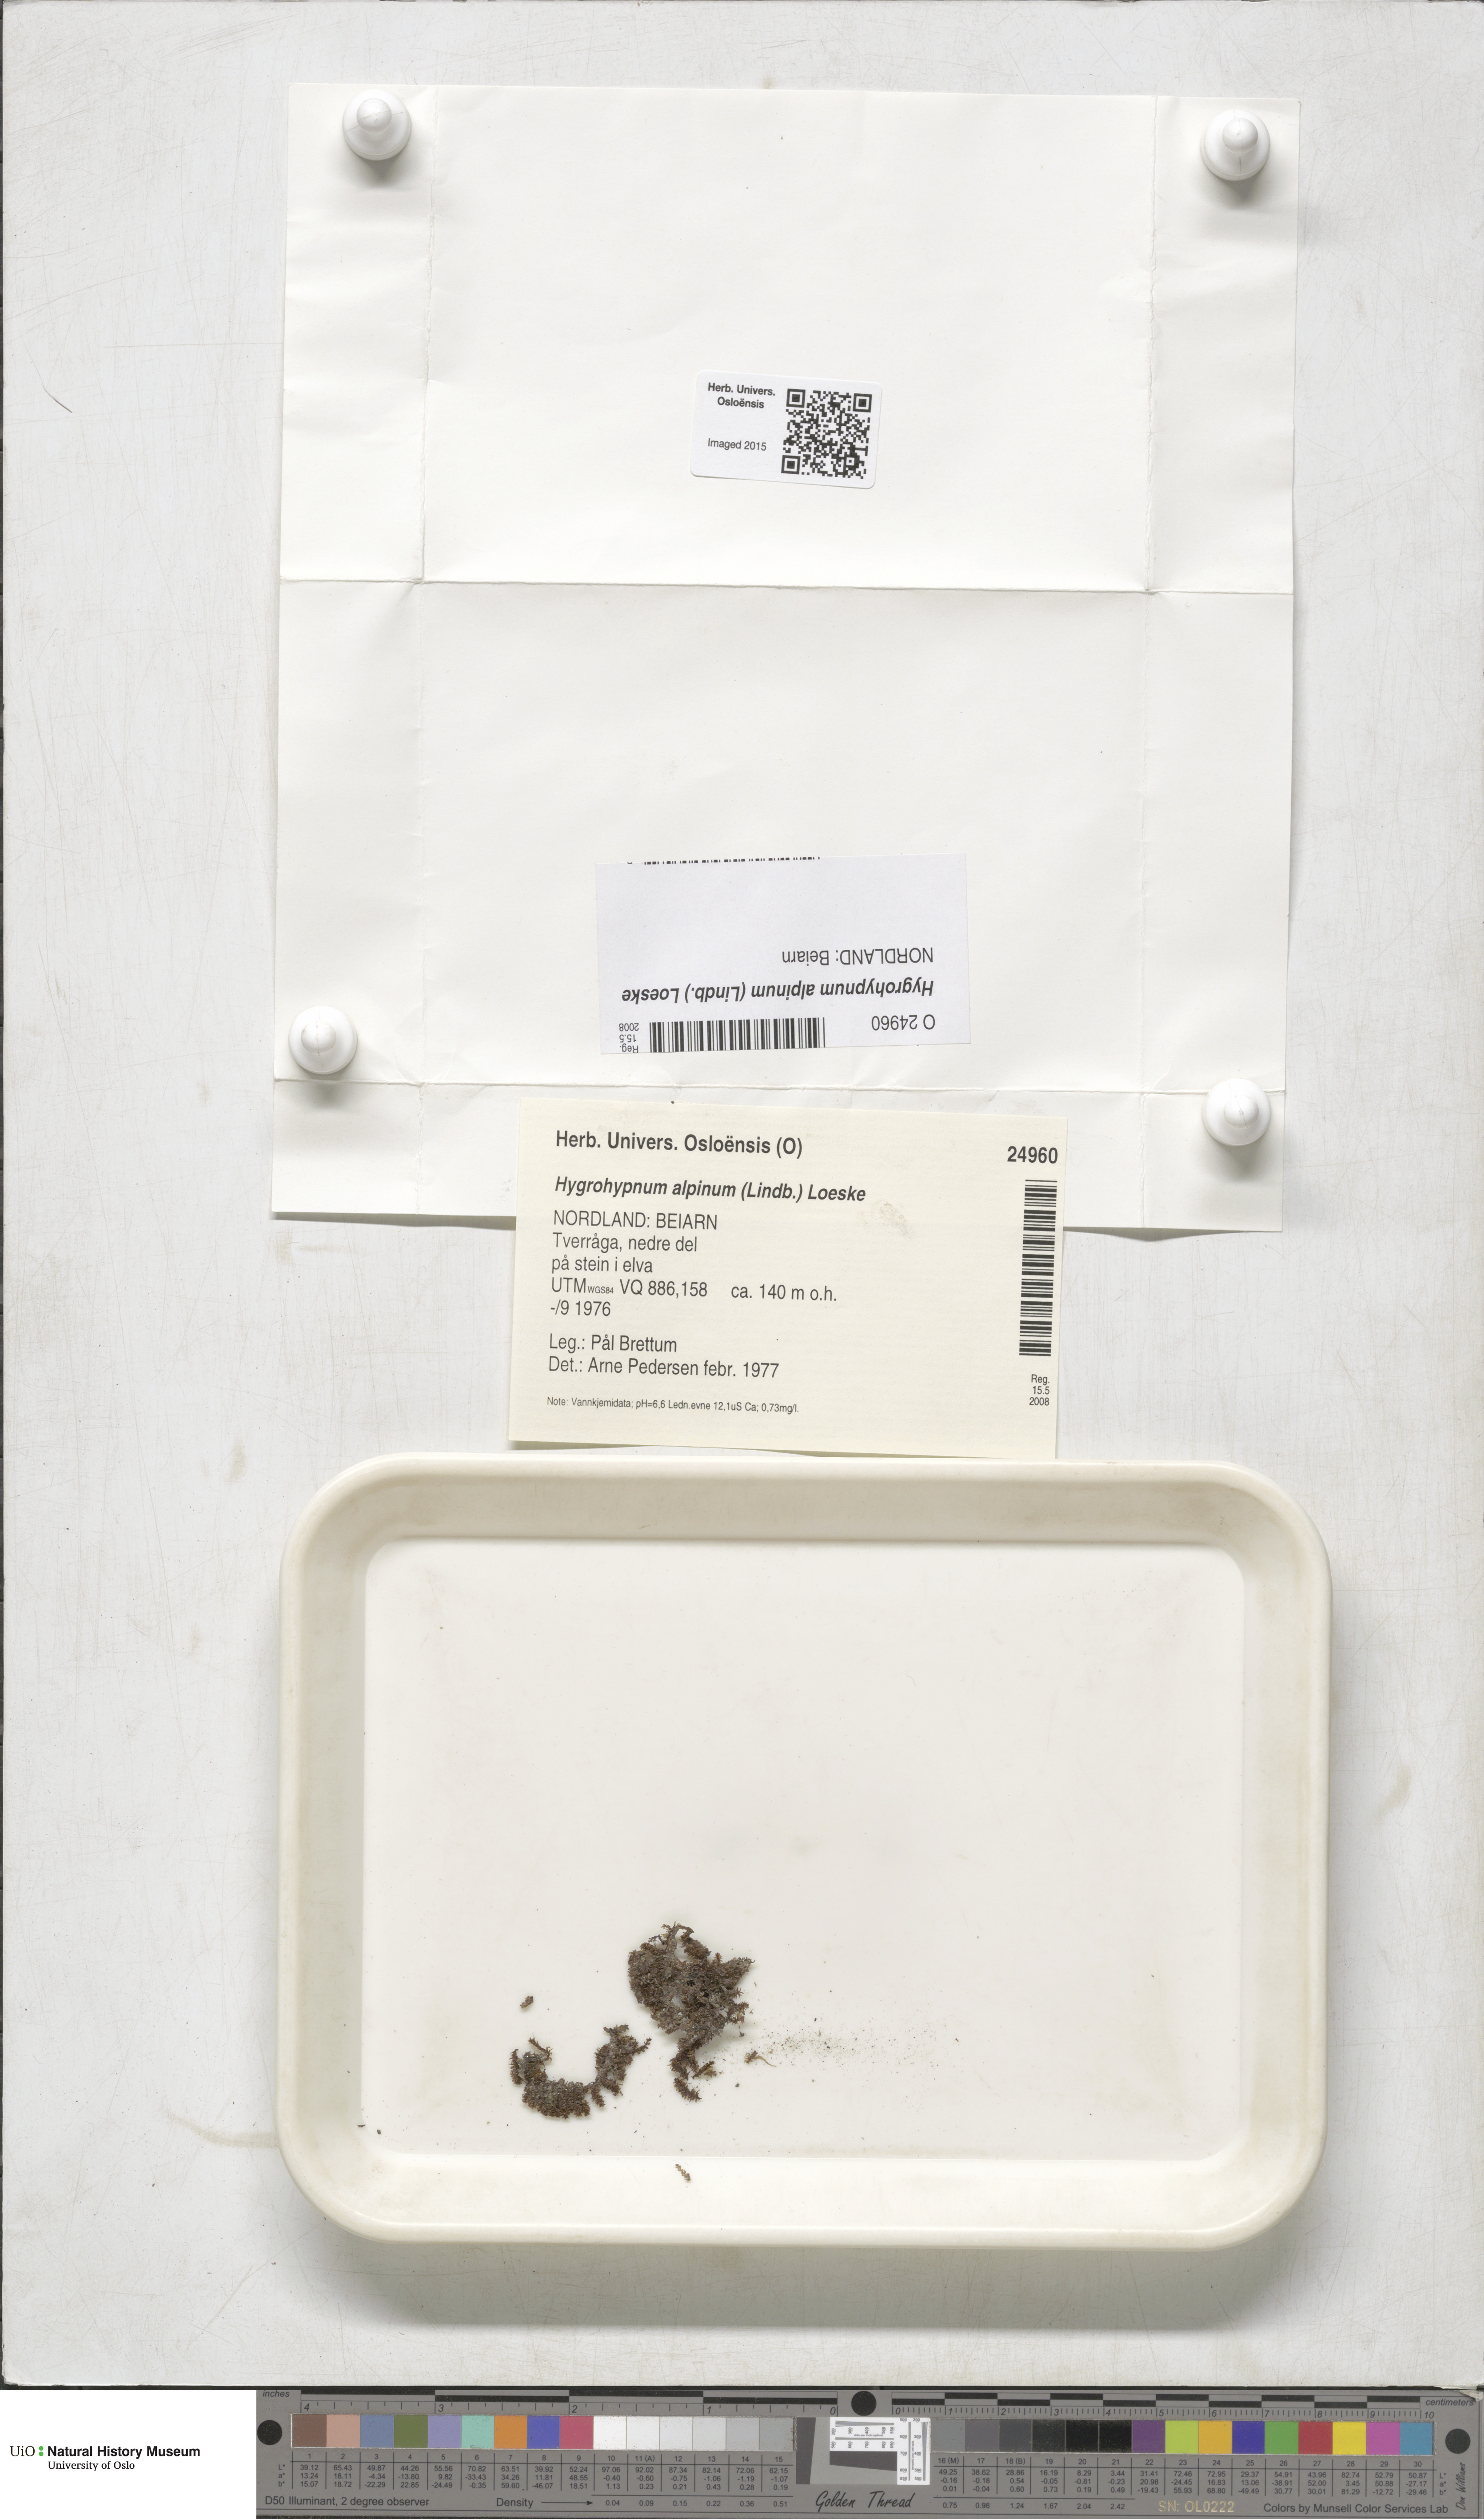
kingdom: Plantae
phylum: Bryophyta
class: Bryopsida
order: Hypnales
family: Amblystegiaceae
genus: Platyhypnum
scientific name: Platyhypnum alpinum
